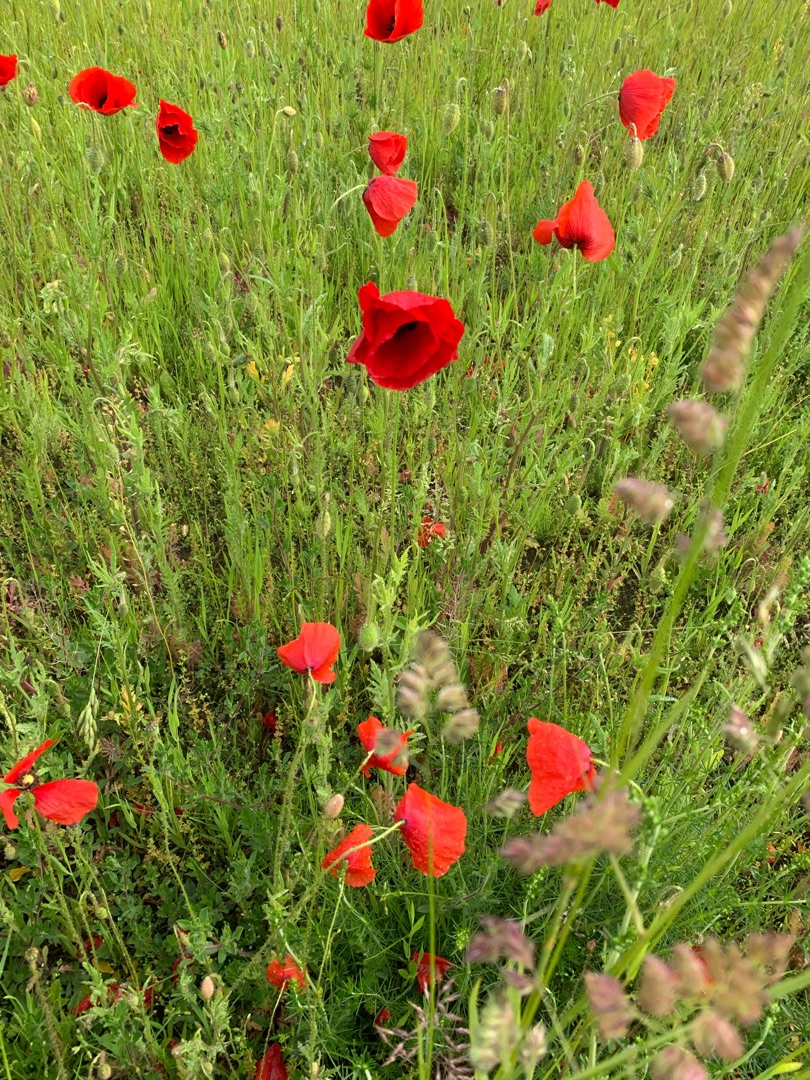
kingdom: Plantae
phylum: Tracheophyta
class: Magnoliopsida
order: Ranunculales
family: Papaveraceae
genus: Papaver
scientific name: Papaver rhoeas
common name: Korn-valmue
